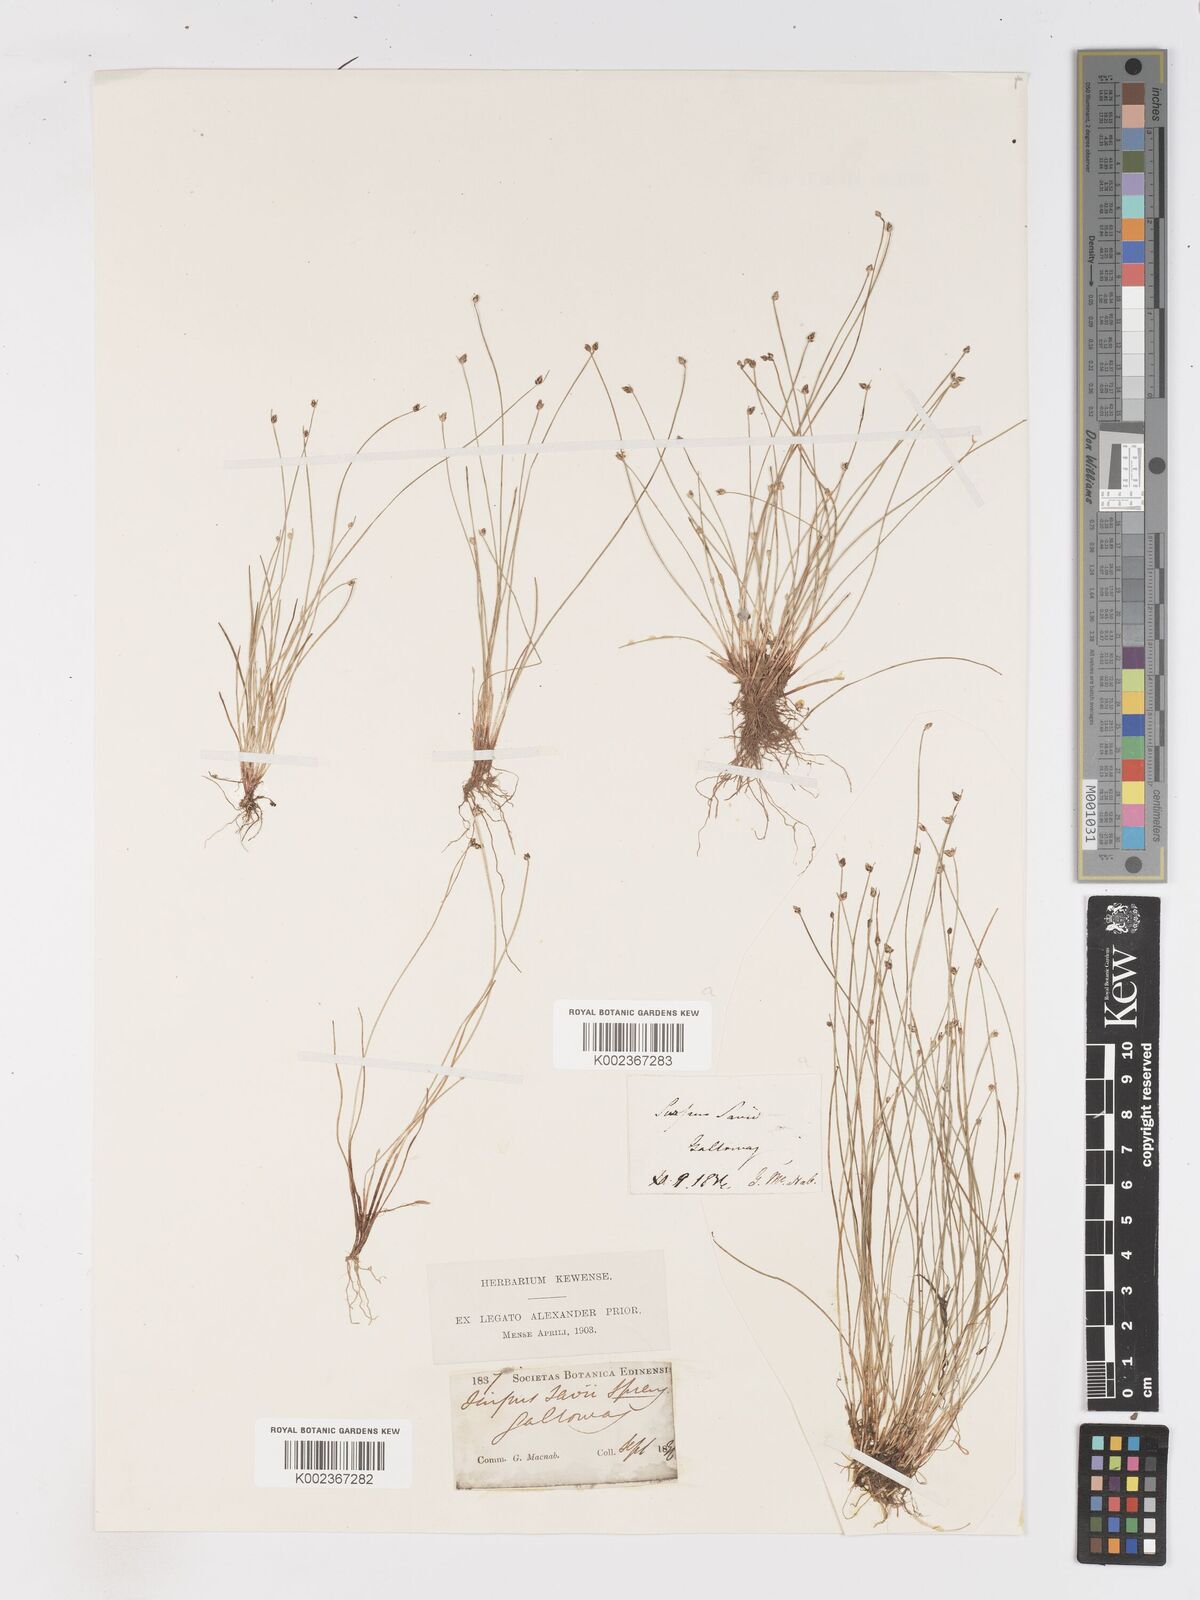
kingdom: Plantae
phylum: Tracheophyta
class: Liliopsida
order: Poales
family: Cyperaceae
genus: Isolepis
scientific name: Isolepis cernua
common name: Slender club-rush
